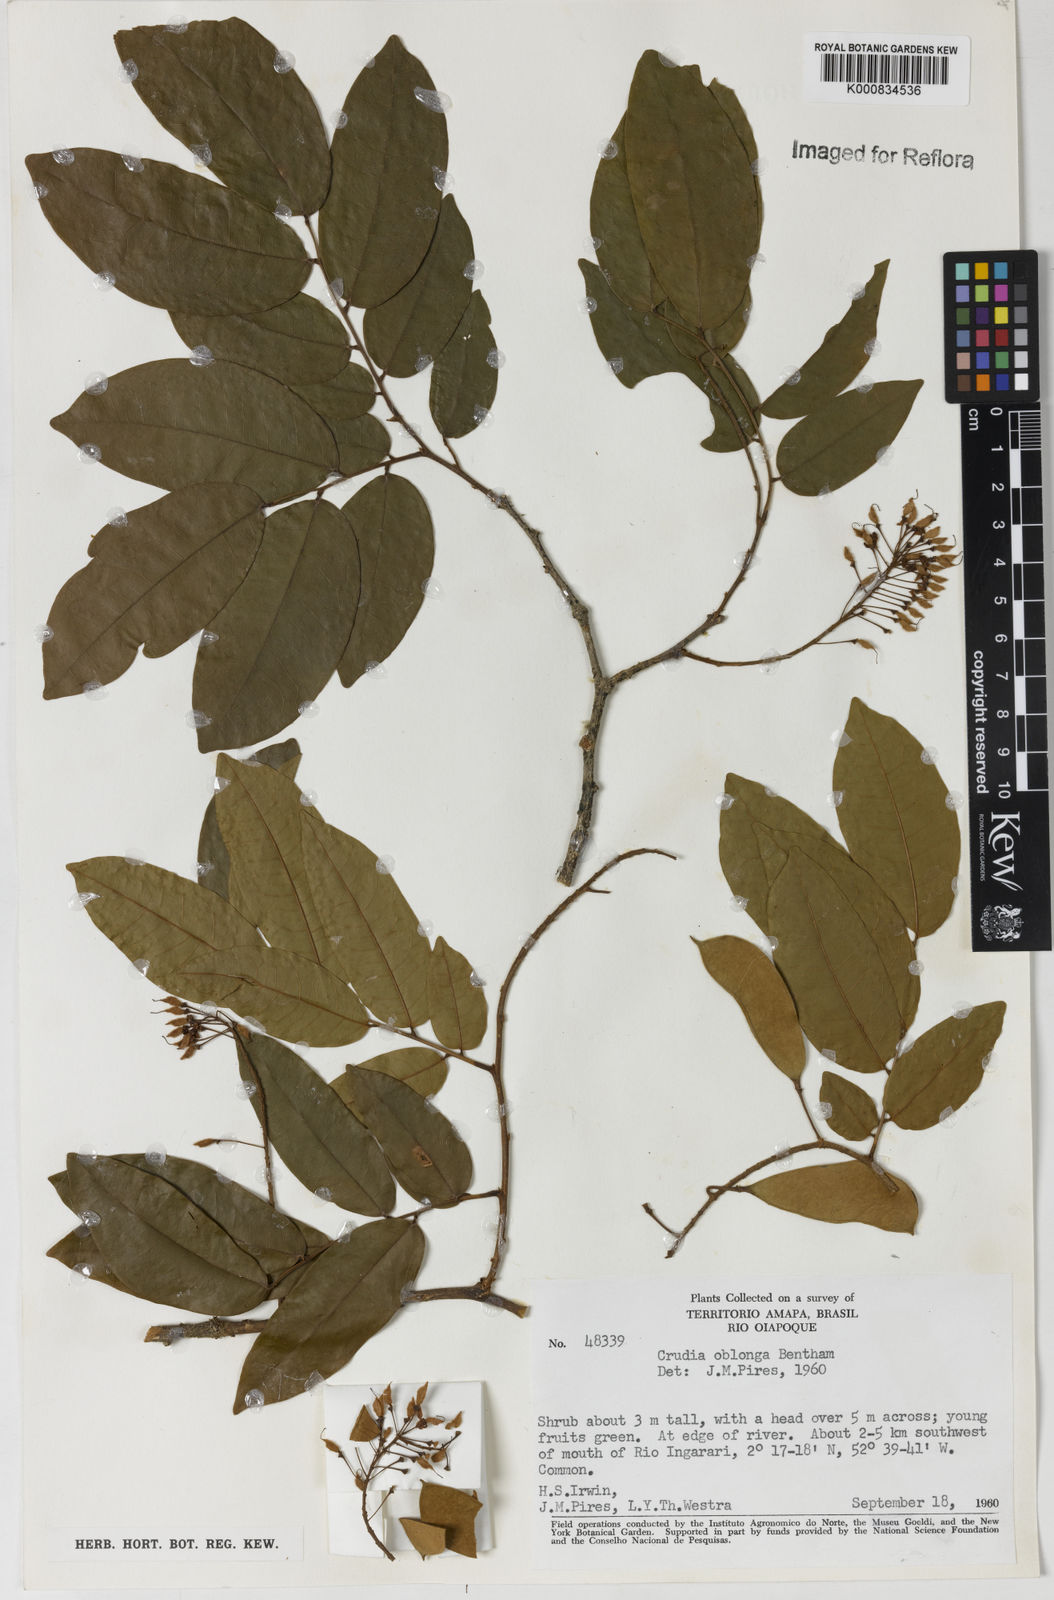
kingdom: Plantae
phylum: Tracheophyta
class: Magnoliopsida
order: Fabales
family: Fabaceae
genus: Crudia
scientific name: Crudia glaberrima
